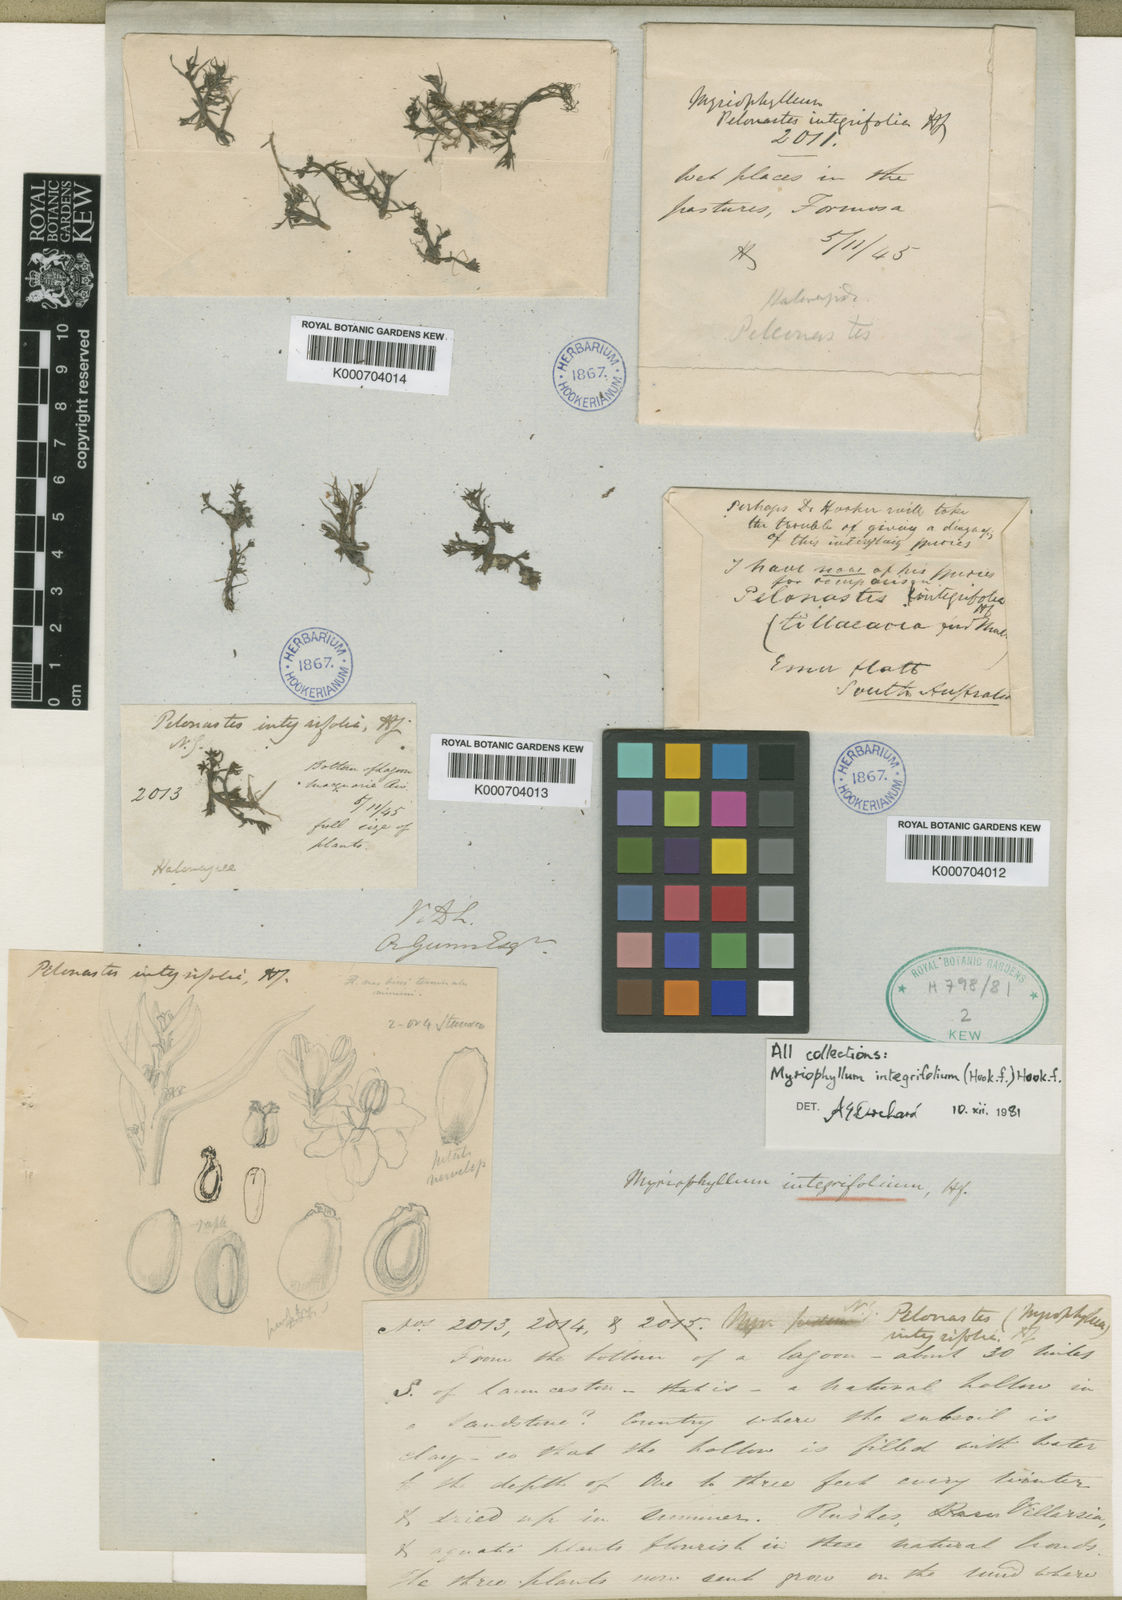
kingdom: Plantae
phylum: Tracheophyta
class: Magnoliopsida
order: Saxifragales
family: Haloragaceae
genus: Myriophyllum
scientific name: Myriophyllum integrifolium
